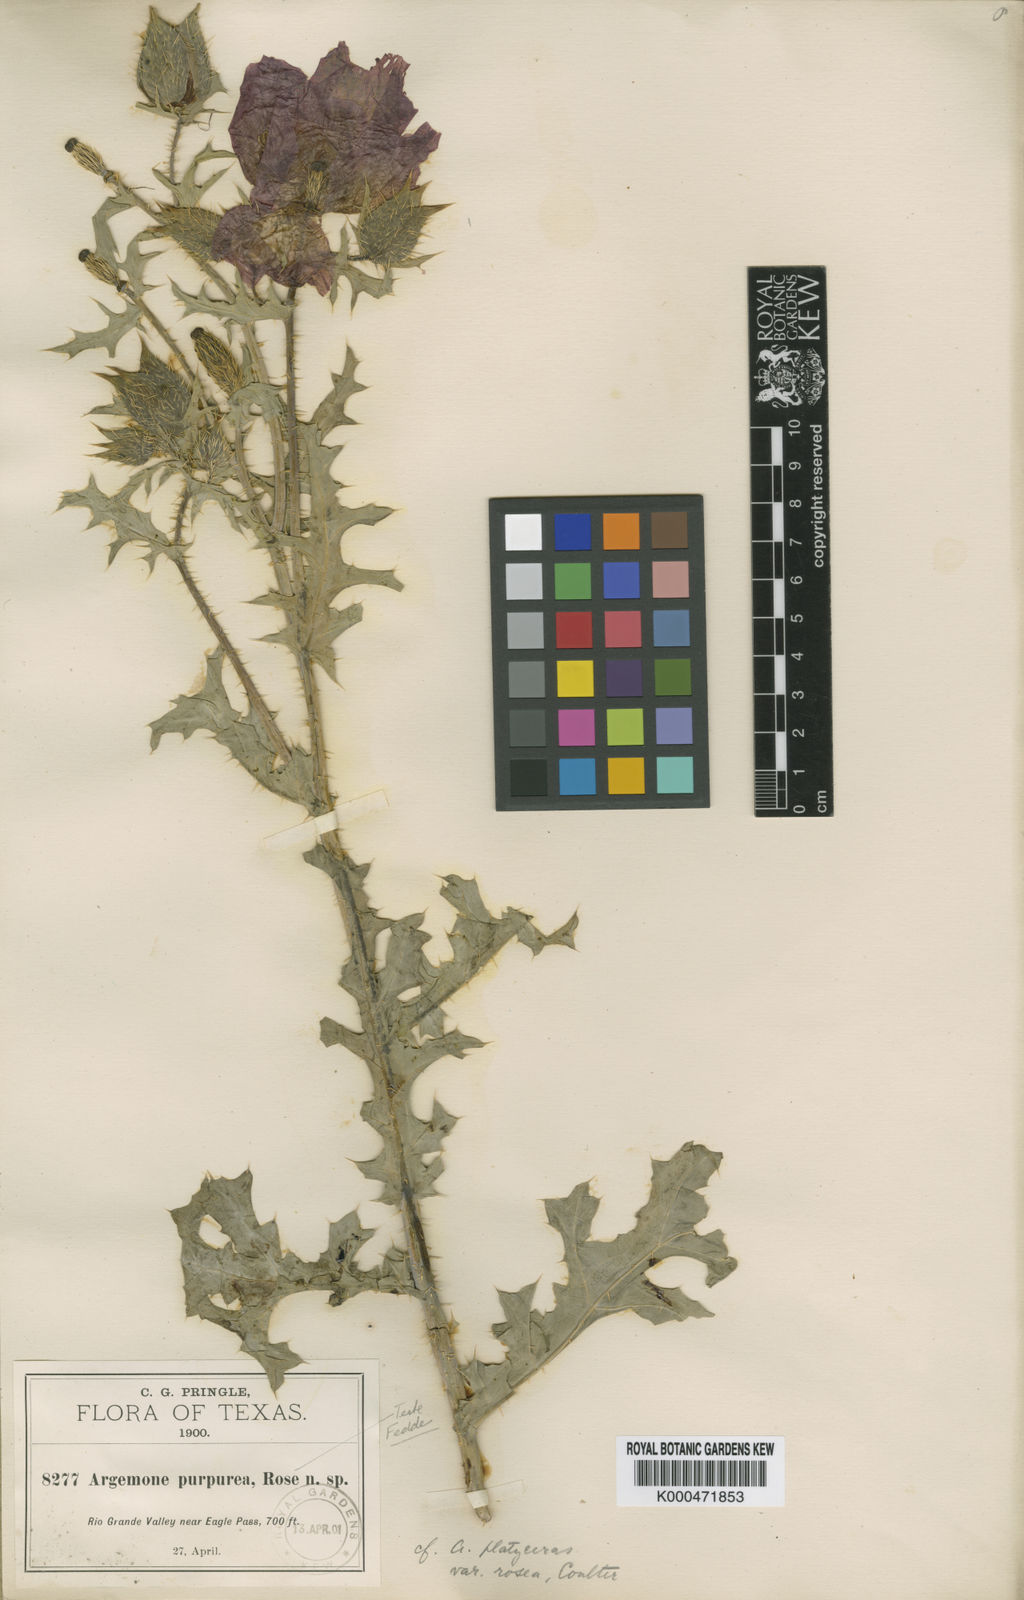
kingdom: Plantae
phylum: Tracheophyta
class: Magnoliopsida
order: Ranunculales
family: Papaveraceae
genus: Argemone
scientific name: Argemone
